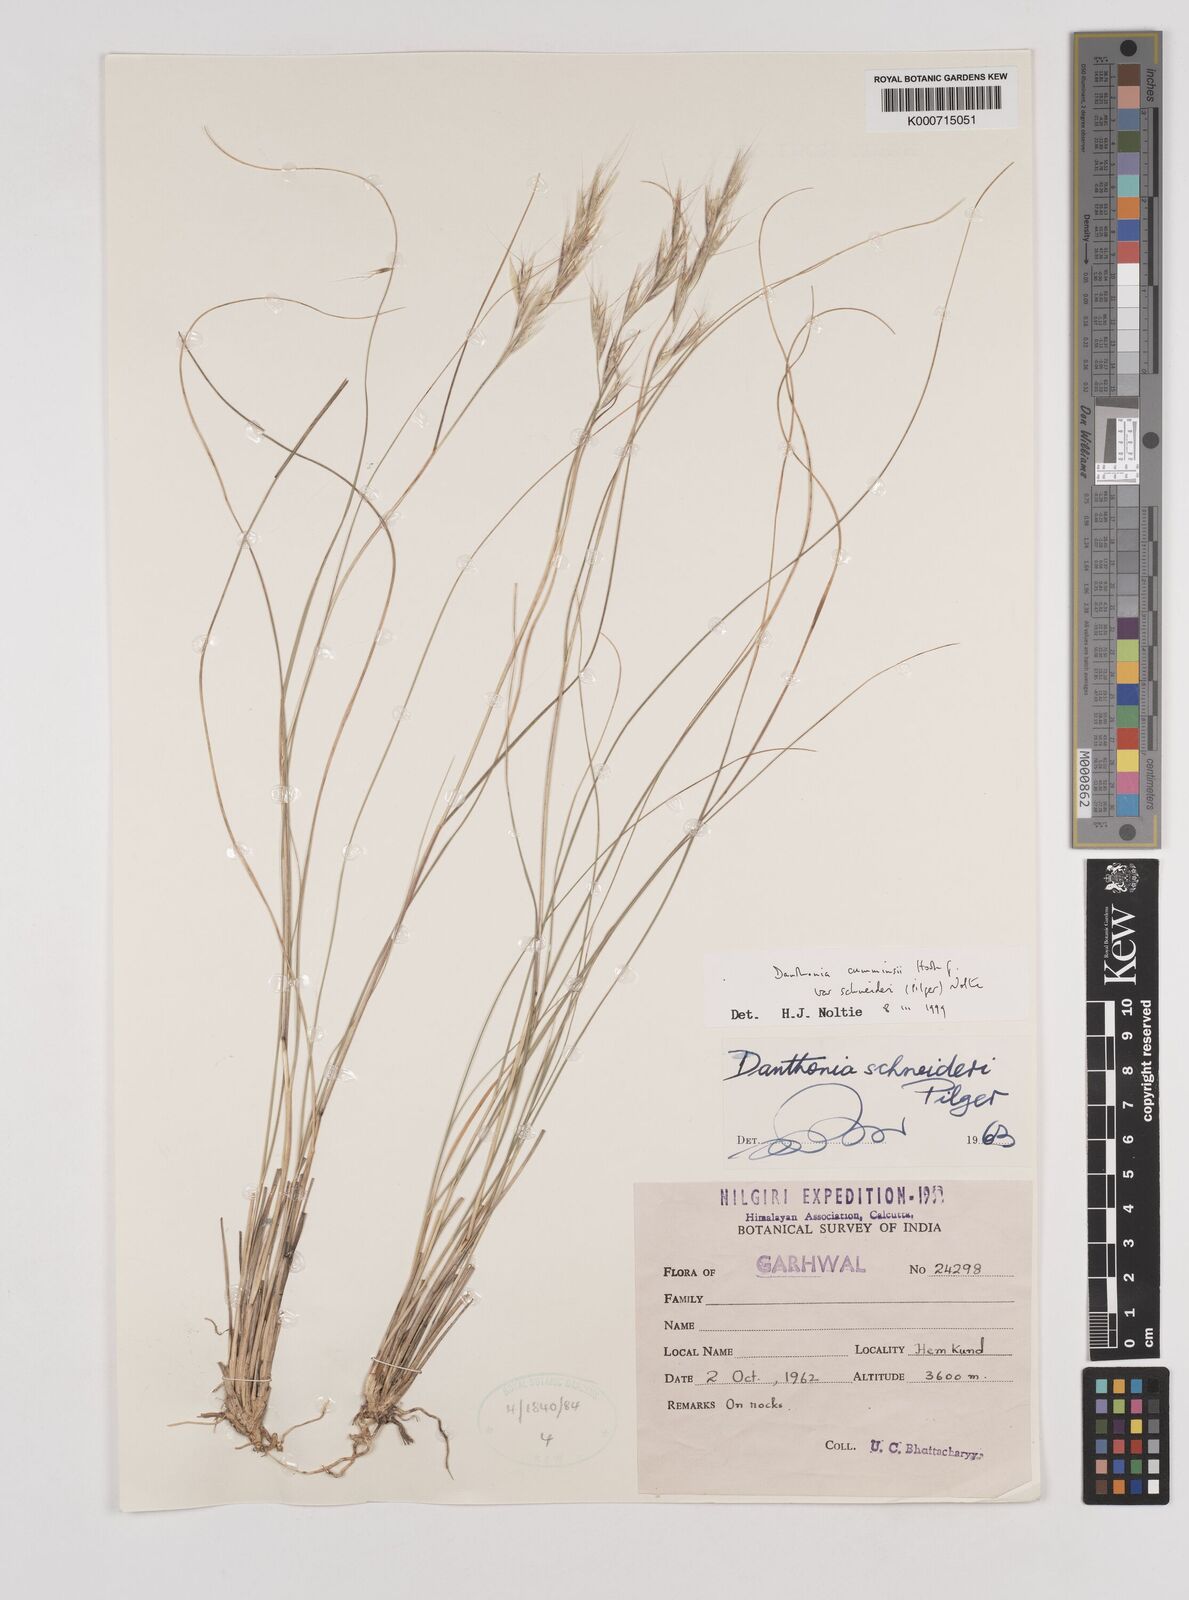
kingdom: Plantae
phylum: Tracheophyta
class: Liliopsida
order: Poales
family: Poaceae
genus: Rytidosperma
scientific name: Rytidosperma
